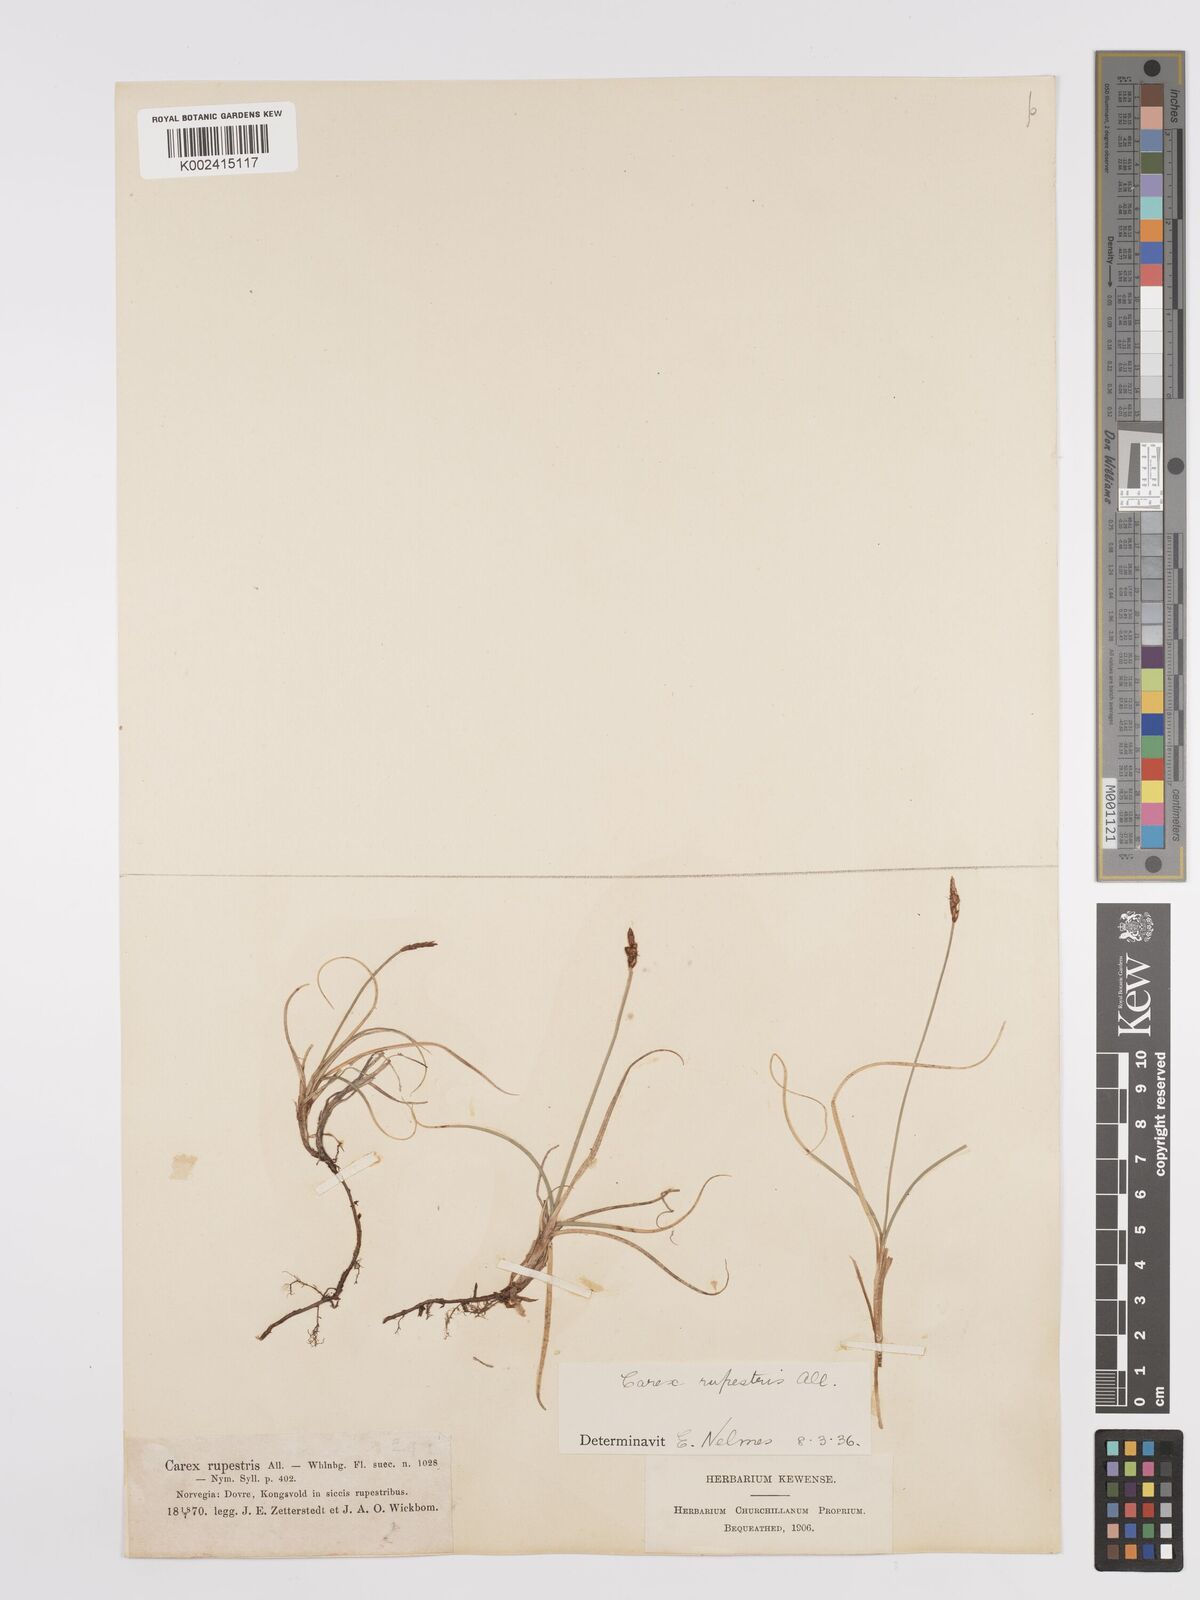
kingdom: Plantae
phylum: Tracheophyta
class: Liliopsida
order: Poales
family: Cyperaceae
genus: Carex
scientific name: Carex rupestris
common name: Rock sedge
